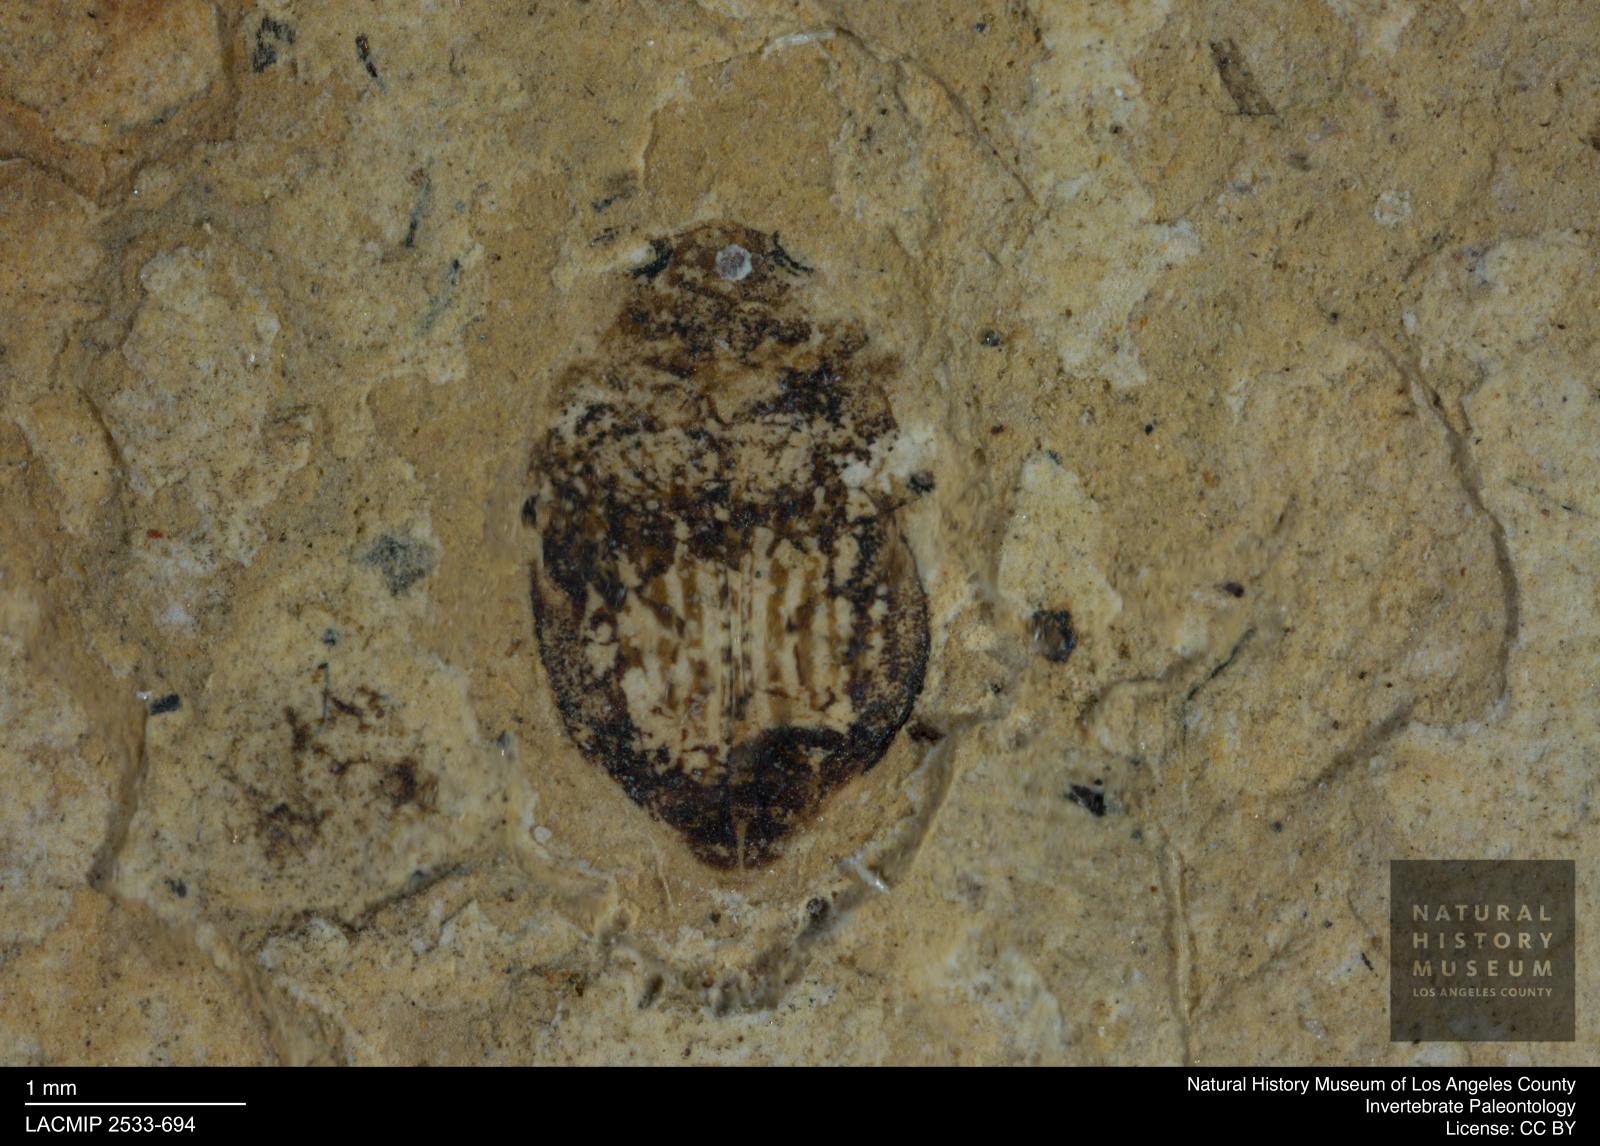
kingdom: Animalia
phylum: Arthropoda
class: Insecta
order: Coleoptera
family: Dytiscidae
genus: Oreodytes
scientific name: Oreodytes cryptolineatus
